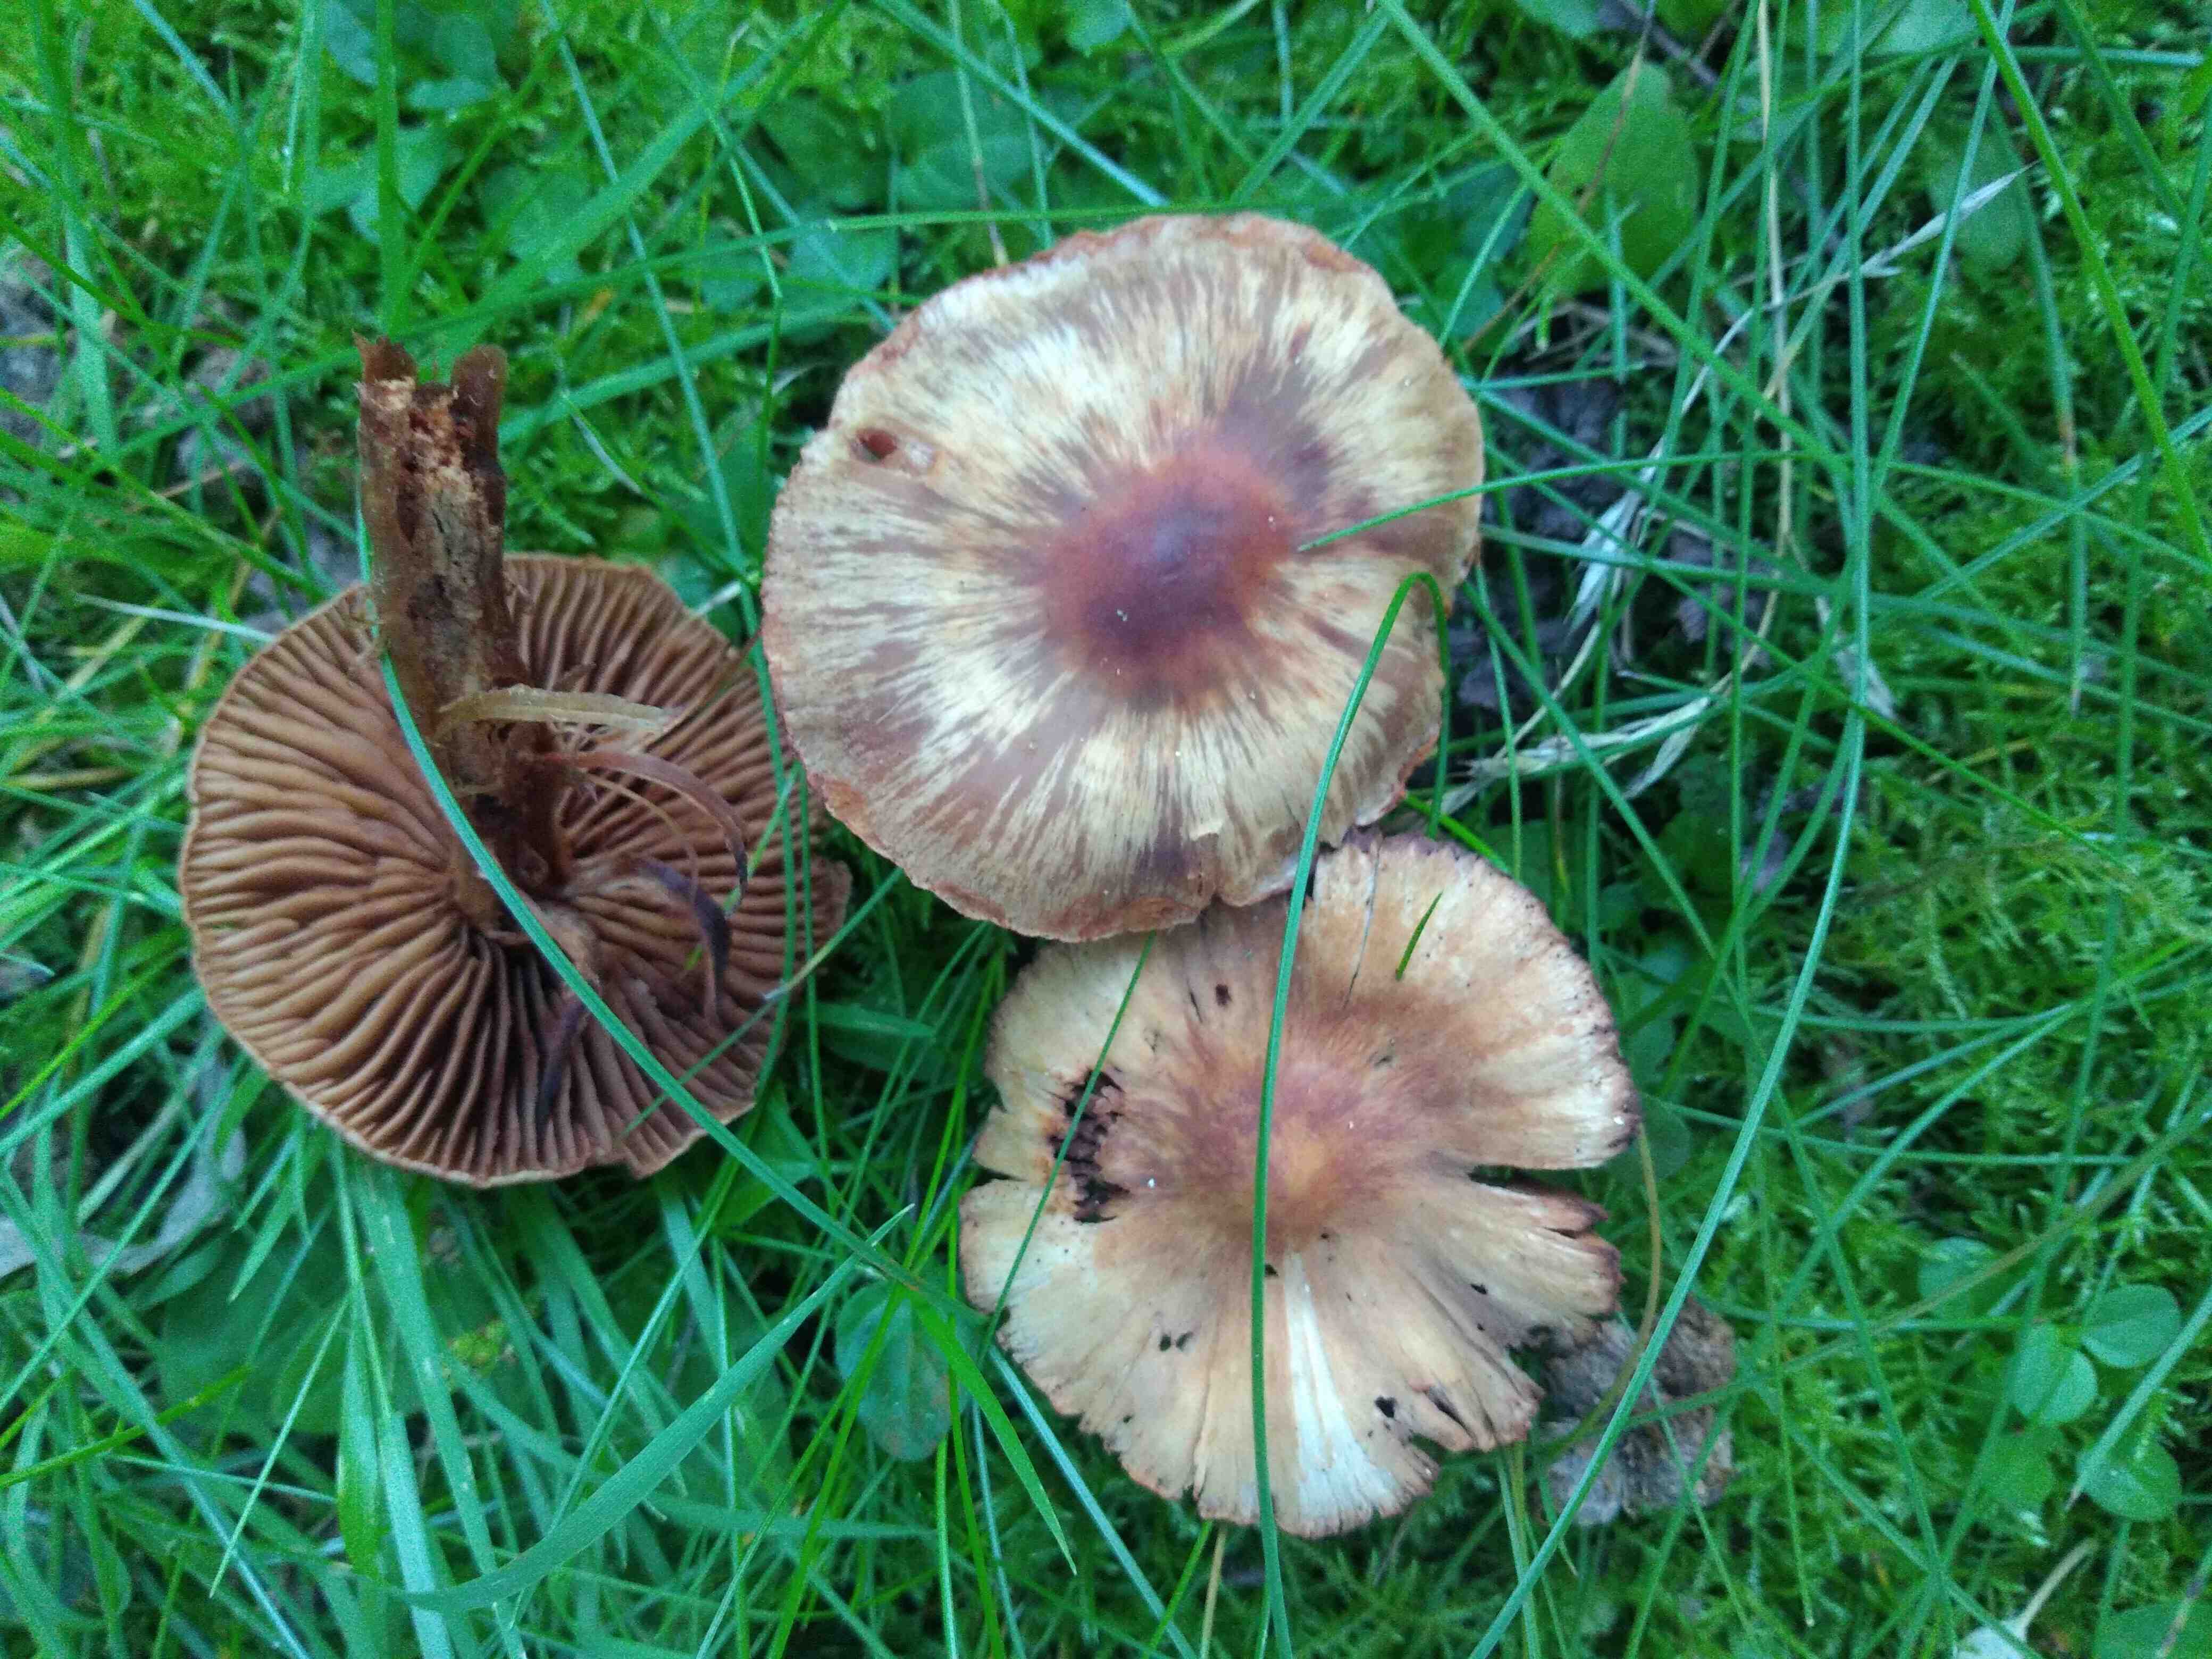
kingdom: Fungi
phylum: Basidiomycota
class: Agaricomycetes
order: Agaricales
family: Cortinariaceae
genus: Cortinarius
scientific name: Cortinarius
